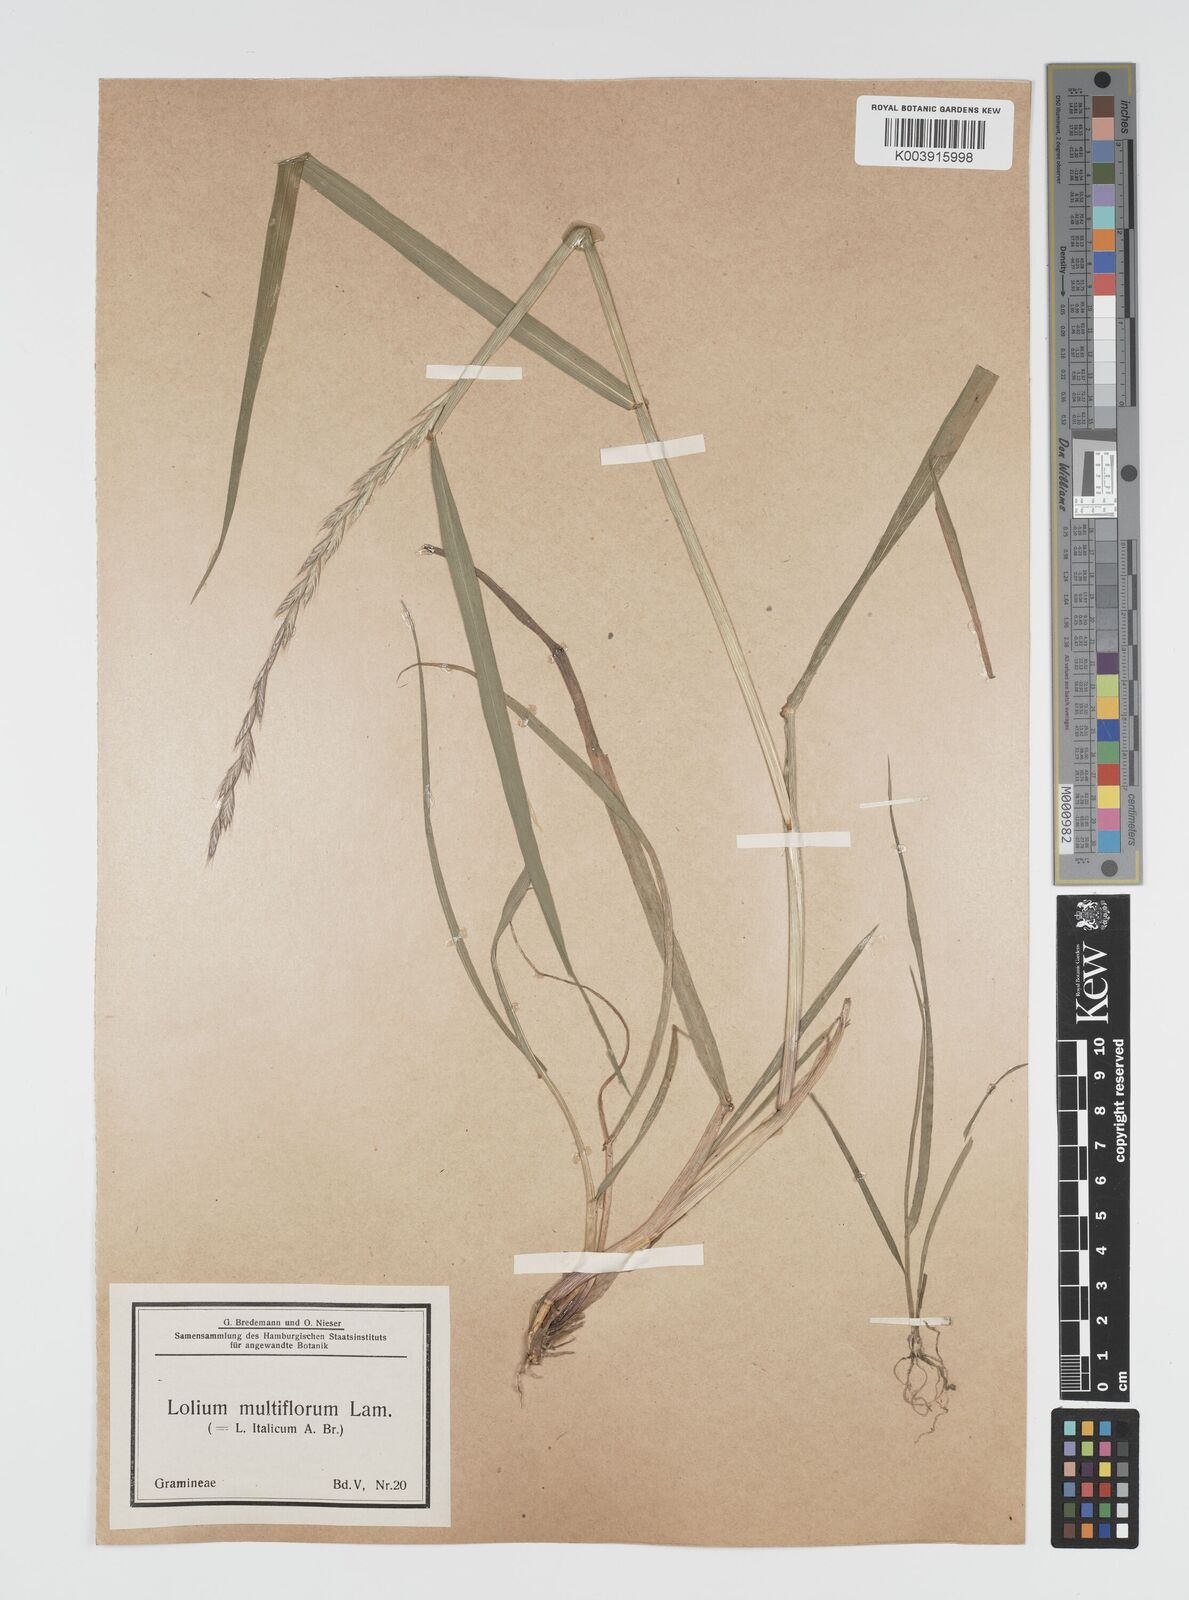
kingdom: Plantae
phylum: Tracheophyta
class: Liliopsida
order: Poales
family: Poaceae
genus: Lolium
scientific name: Lolium multiflorum
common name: Annual ryegrass
